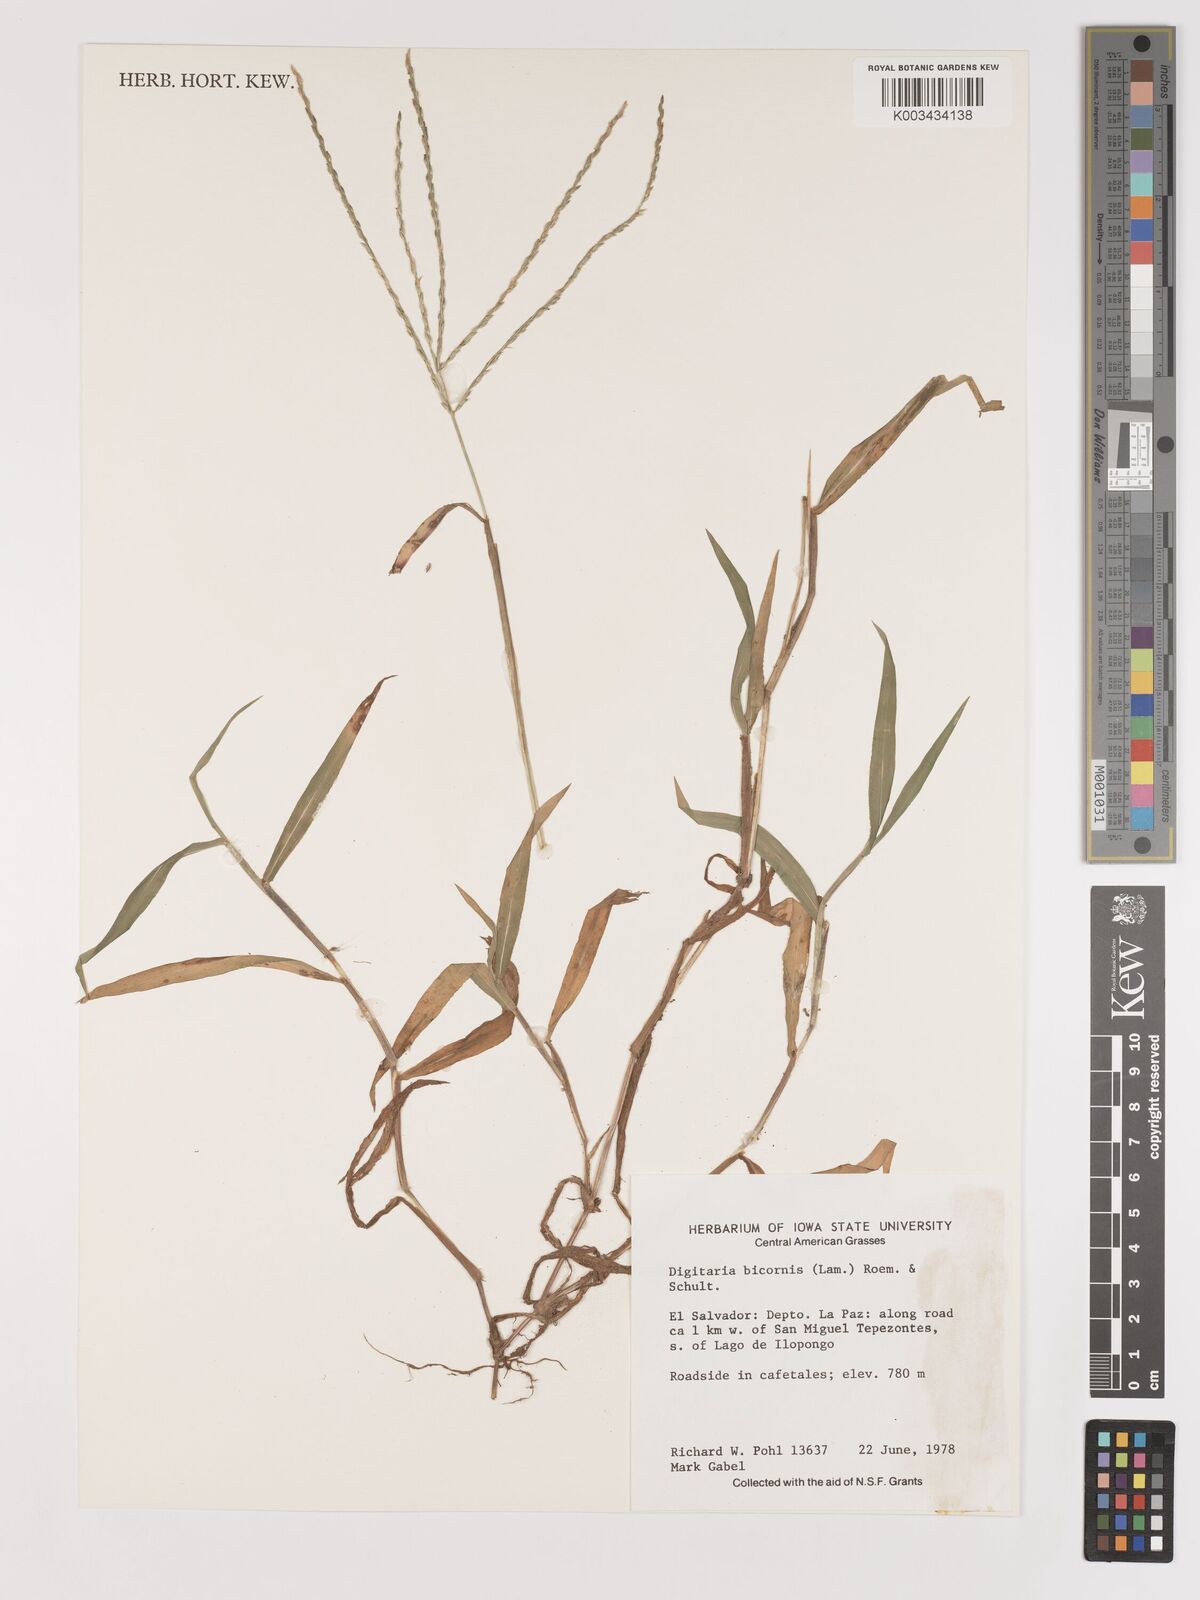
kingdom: Plantae
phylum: Tracheophyta
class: Liliopsida
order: Poales
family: Poaceae
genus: Digitaria
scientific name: Digitaria ciliaris
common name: Tropical finger-grass
